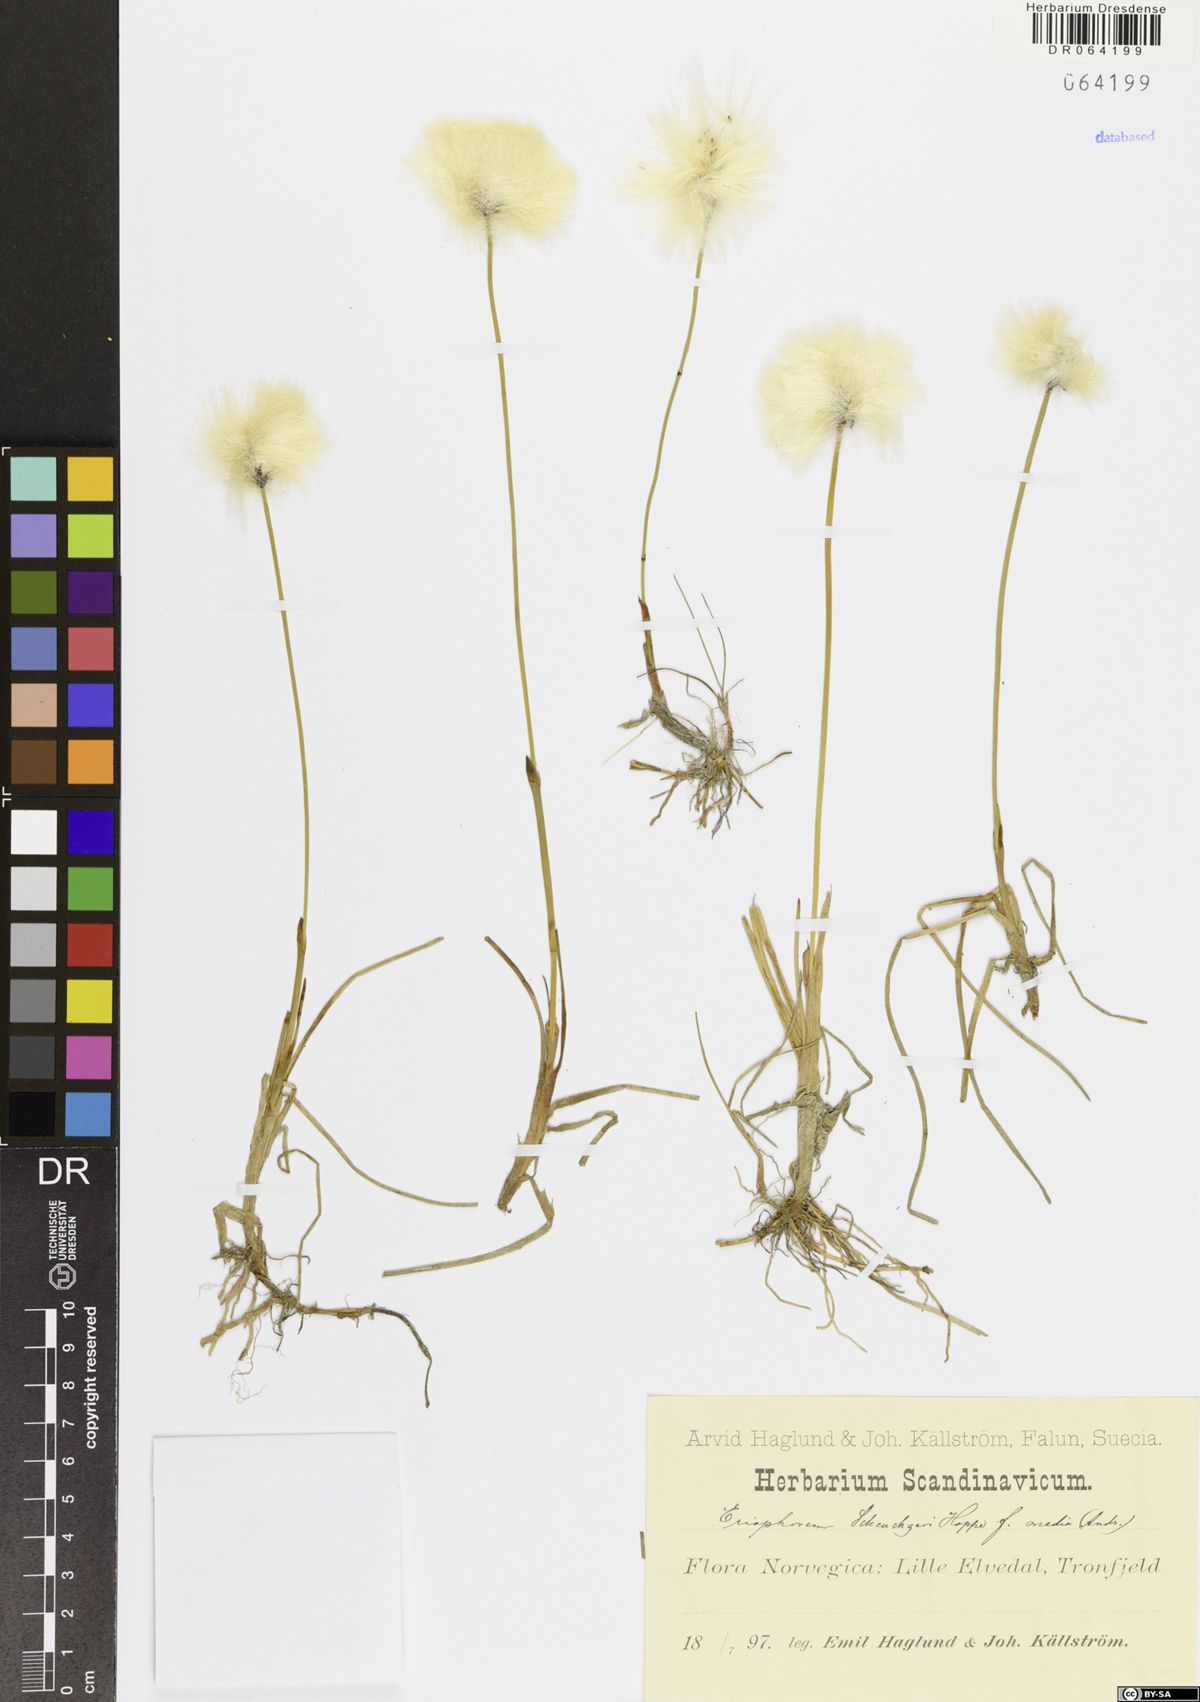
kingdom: Plantae
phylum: Tracheophyta
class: Liliopsida
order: Poales
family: Cyperaceae
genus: Eriophorum
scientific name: Eriophorum scheuchzeri
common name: Scheuchzer's cottongrass
